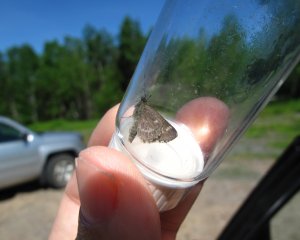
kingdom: Animalia
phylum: Arthropoda
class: Insecta
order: Lepidoptera
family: Hesperiidae
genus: Mastor
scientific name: Mastor hegon
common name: Pepper and Salt Skipper
